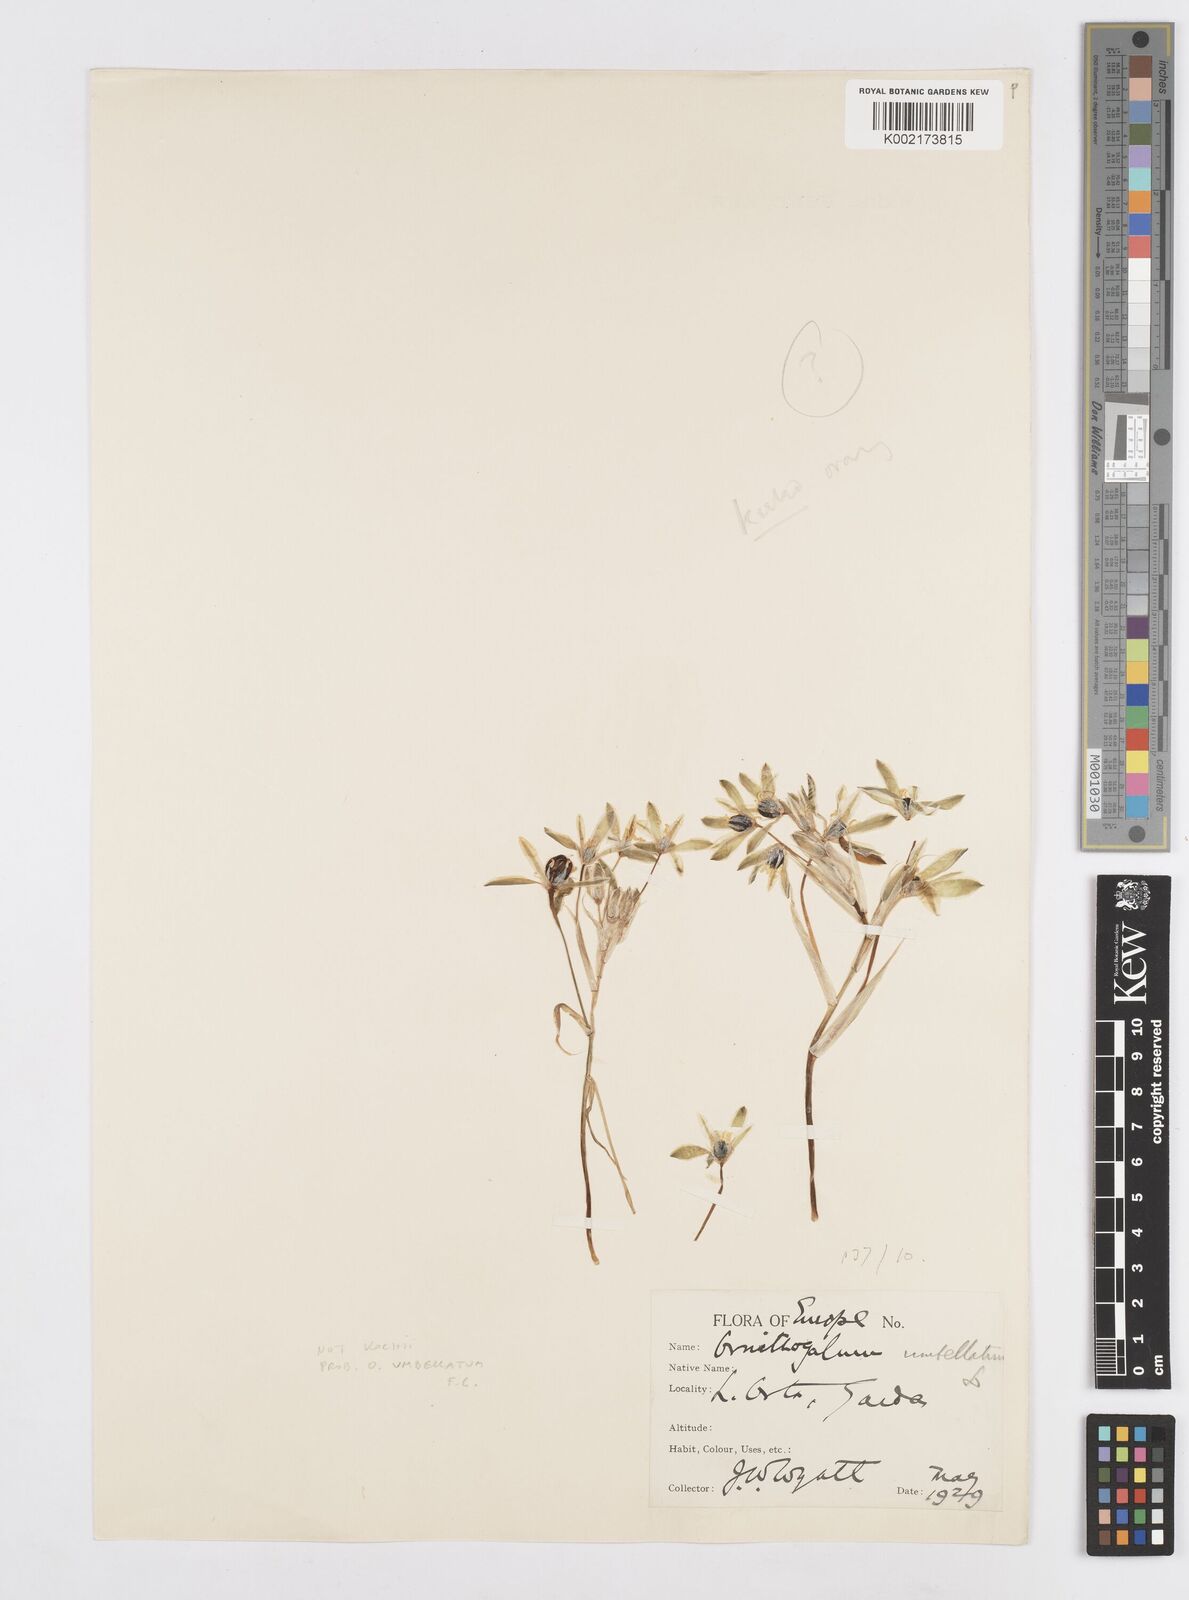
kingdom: Plantae
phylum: Tracheophyta
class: Liliopsida
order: Asparagales
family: Asparagaceae
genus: Ornithogalum
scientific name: Ornithogalum umbellatum
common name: Garden star-of-bethlehem
